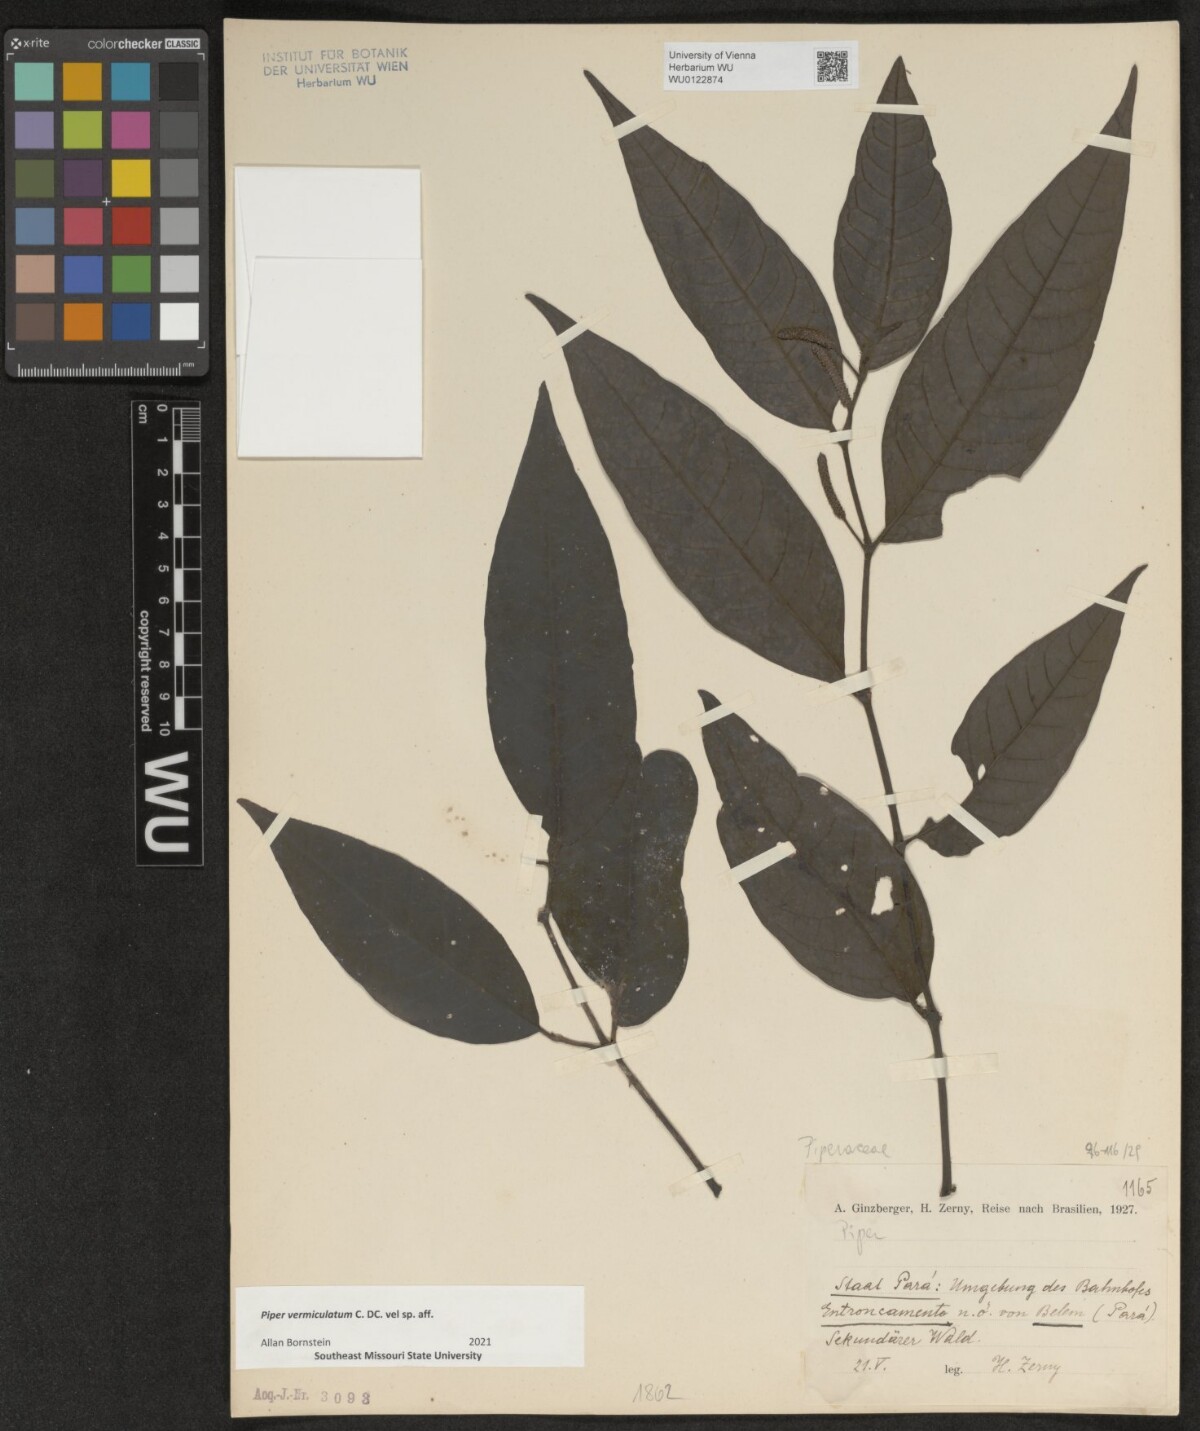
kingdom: Plantae
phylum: Tracheophyta
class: Magnoliopsida
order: Piperales
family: Piperaceae
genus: Piper
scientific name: Piper vermiculatum
